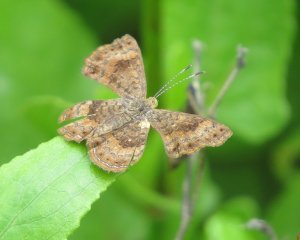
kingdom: Animalia
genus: Calephelis
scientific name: Calephelis nemesis
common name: Fatal Metalmark
